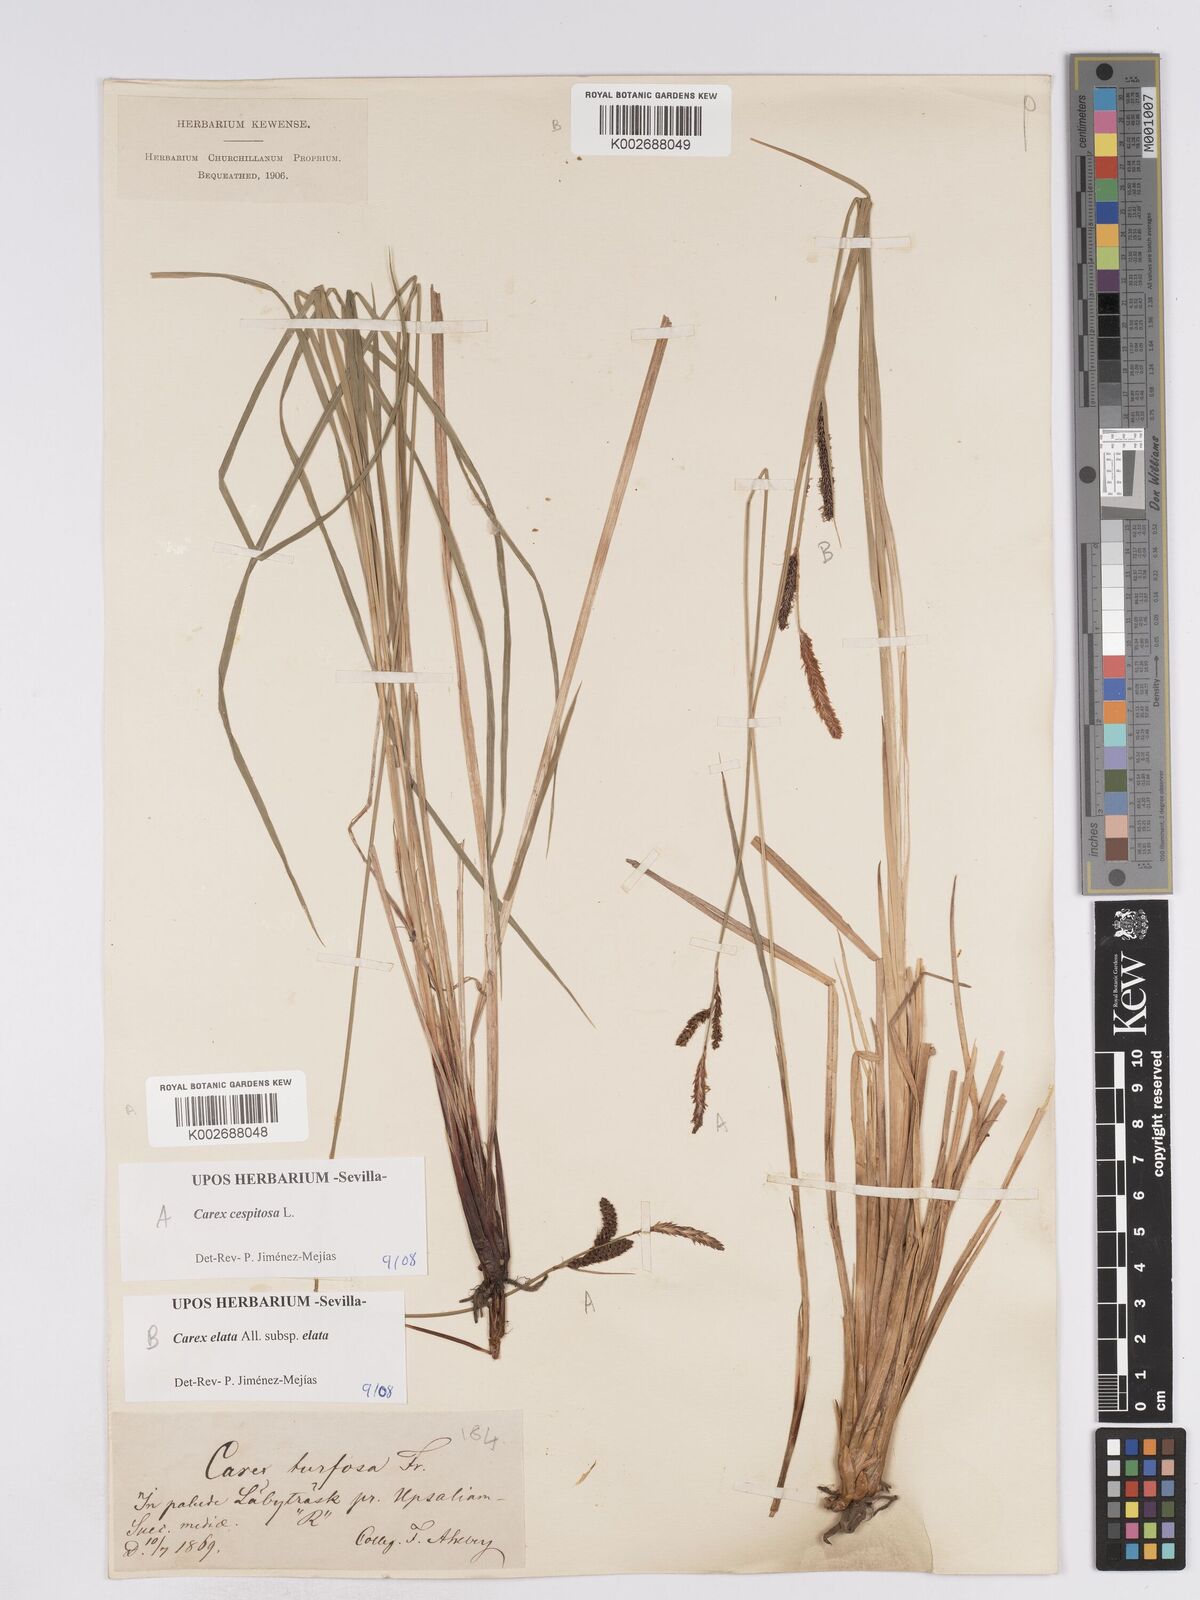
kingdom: Plantae
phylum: Tracheophyta
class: Liliopsida
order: Poales
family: Cyperaceae
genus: Carex
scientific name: Carex
